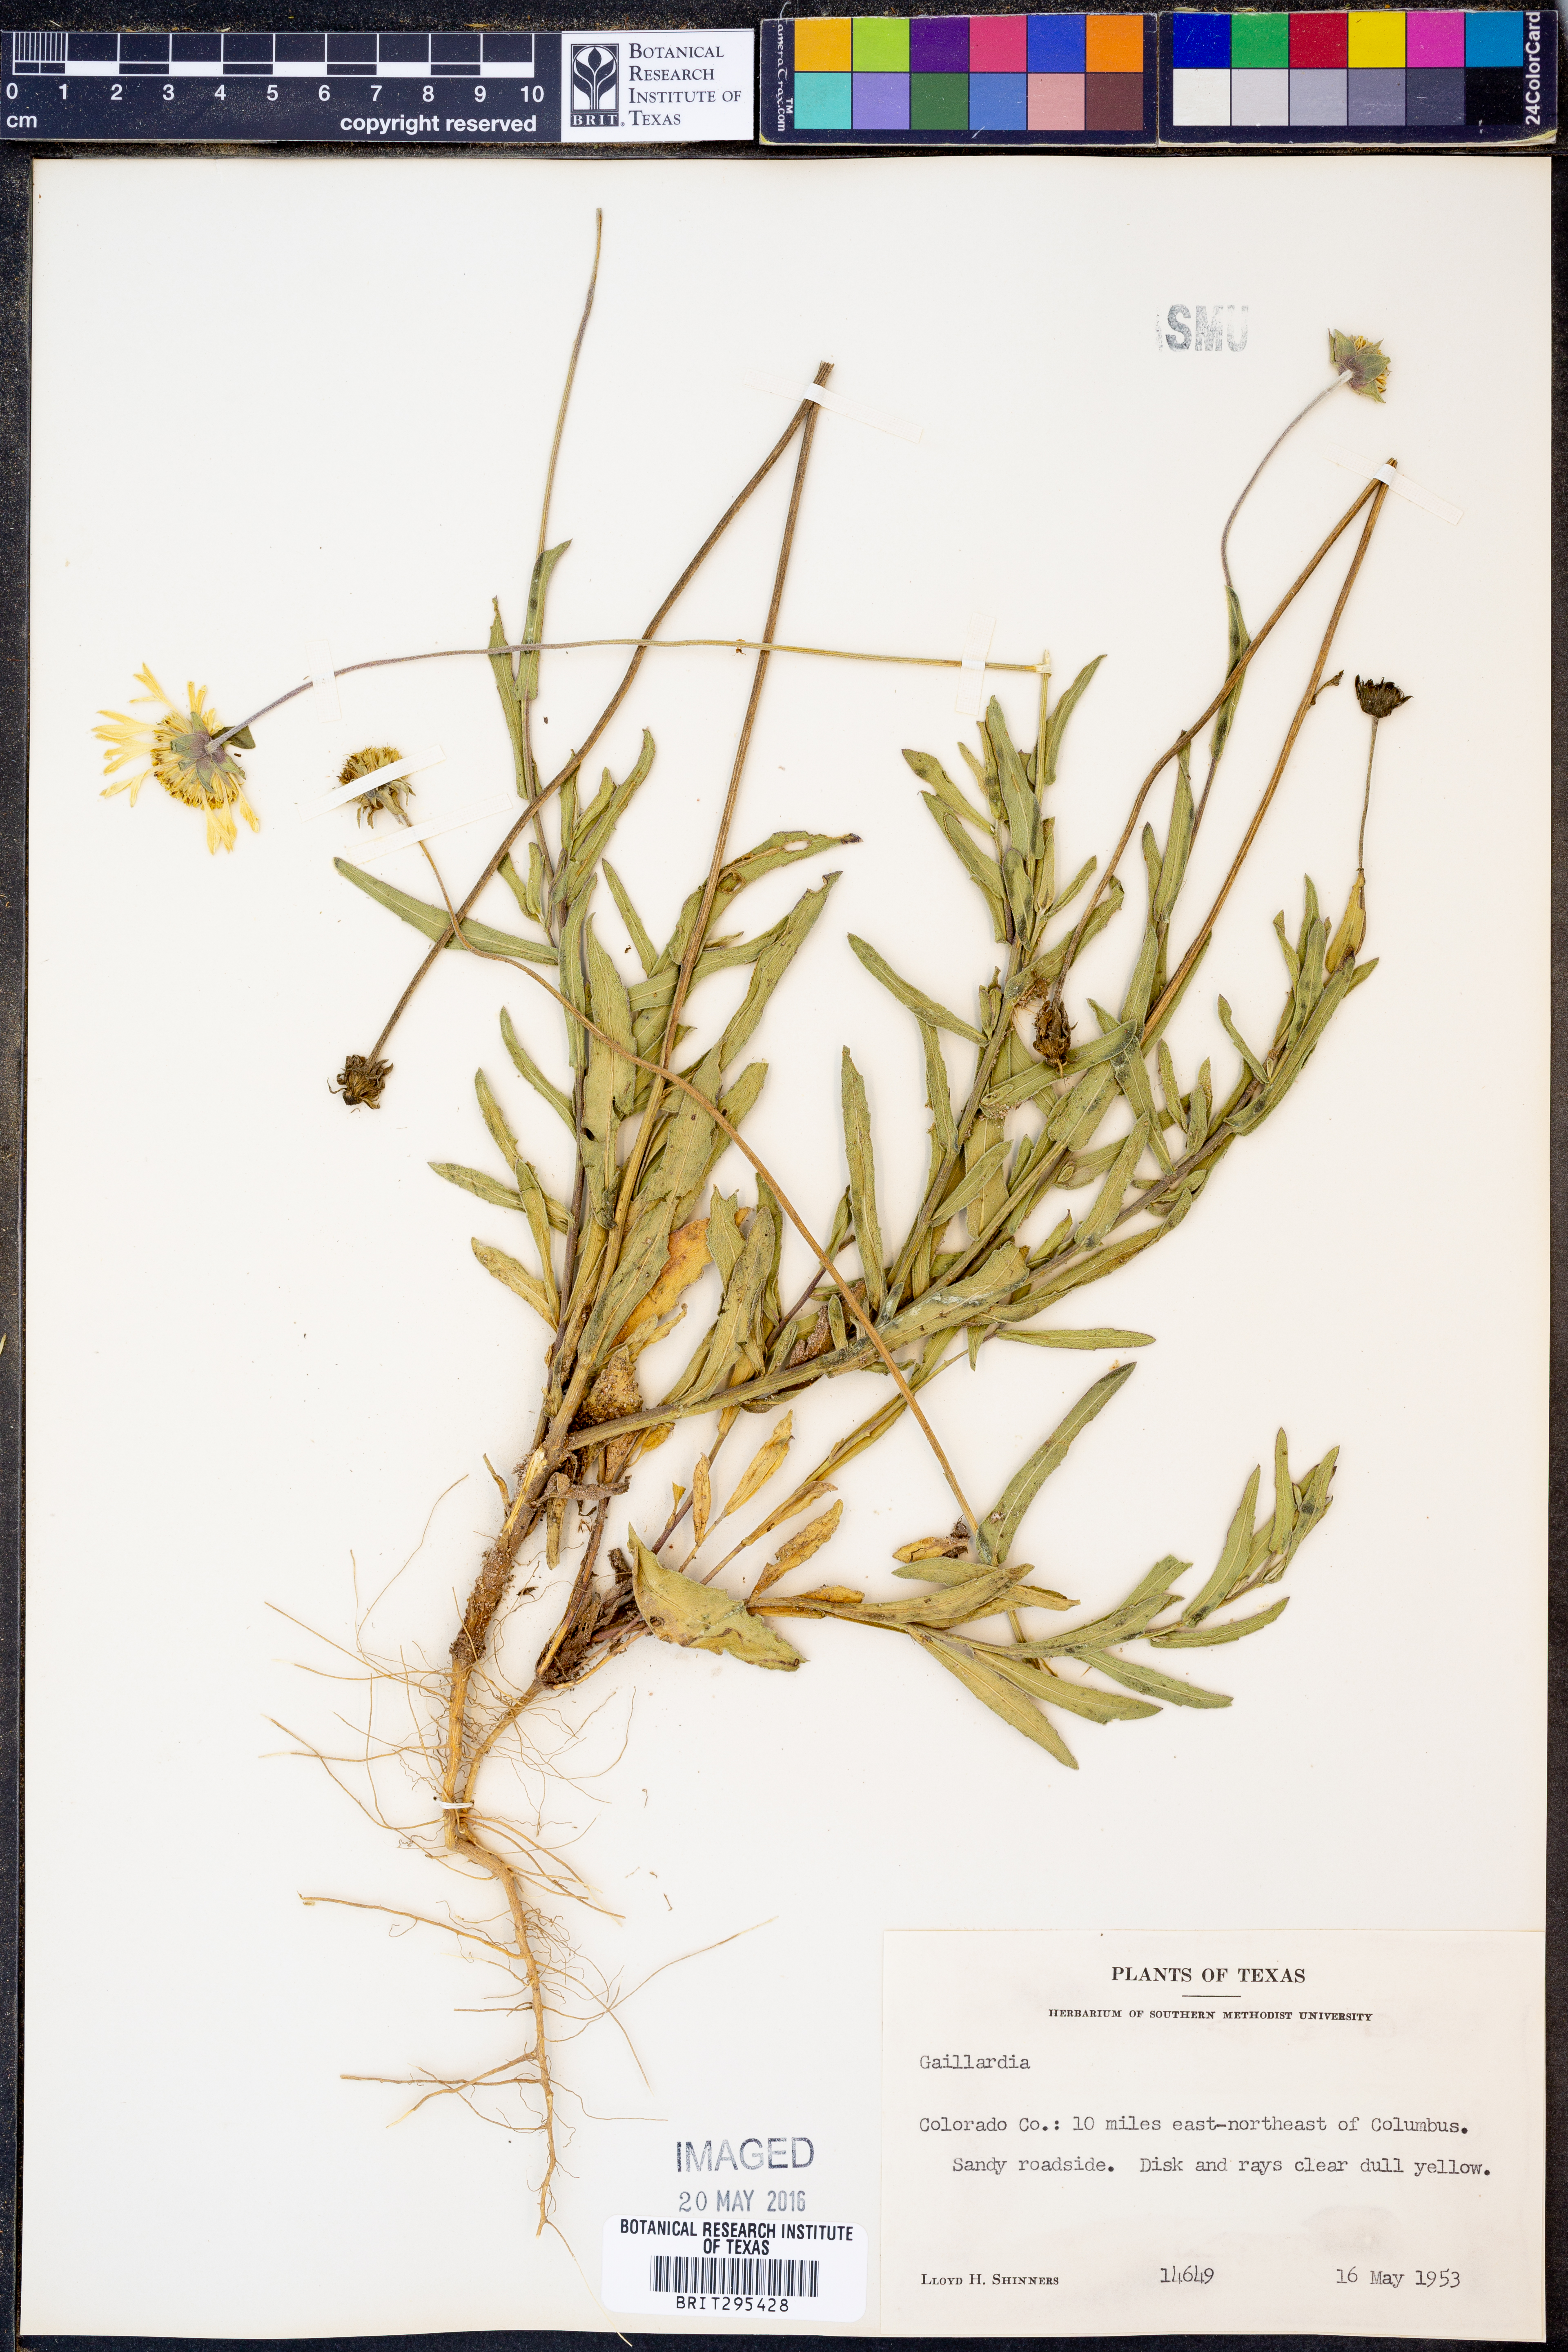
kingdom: Plantae
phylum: Tracheophyta
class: Magnoliopsida
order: Asterales
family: Asteraceae
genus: Gaillardia
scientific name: Gaillardia
